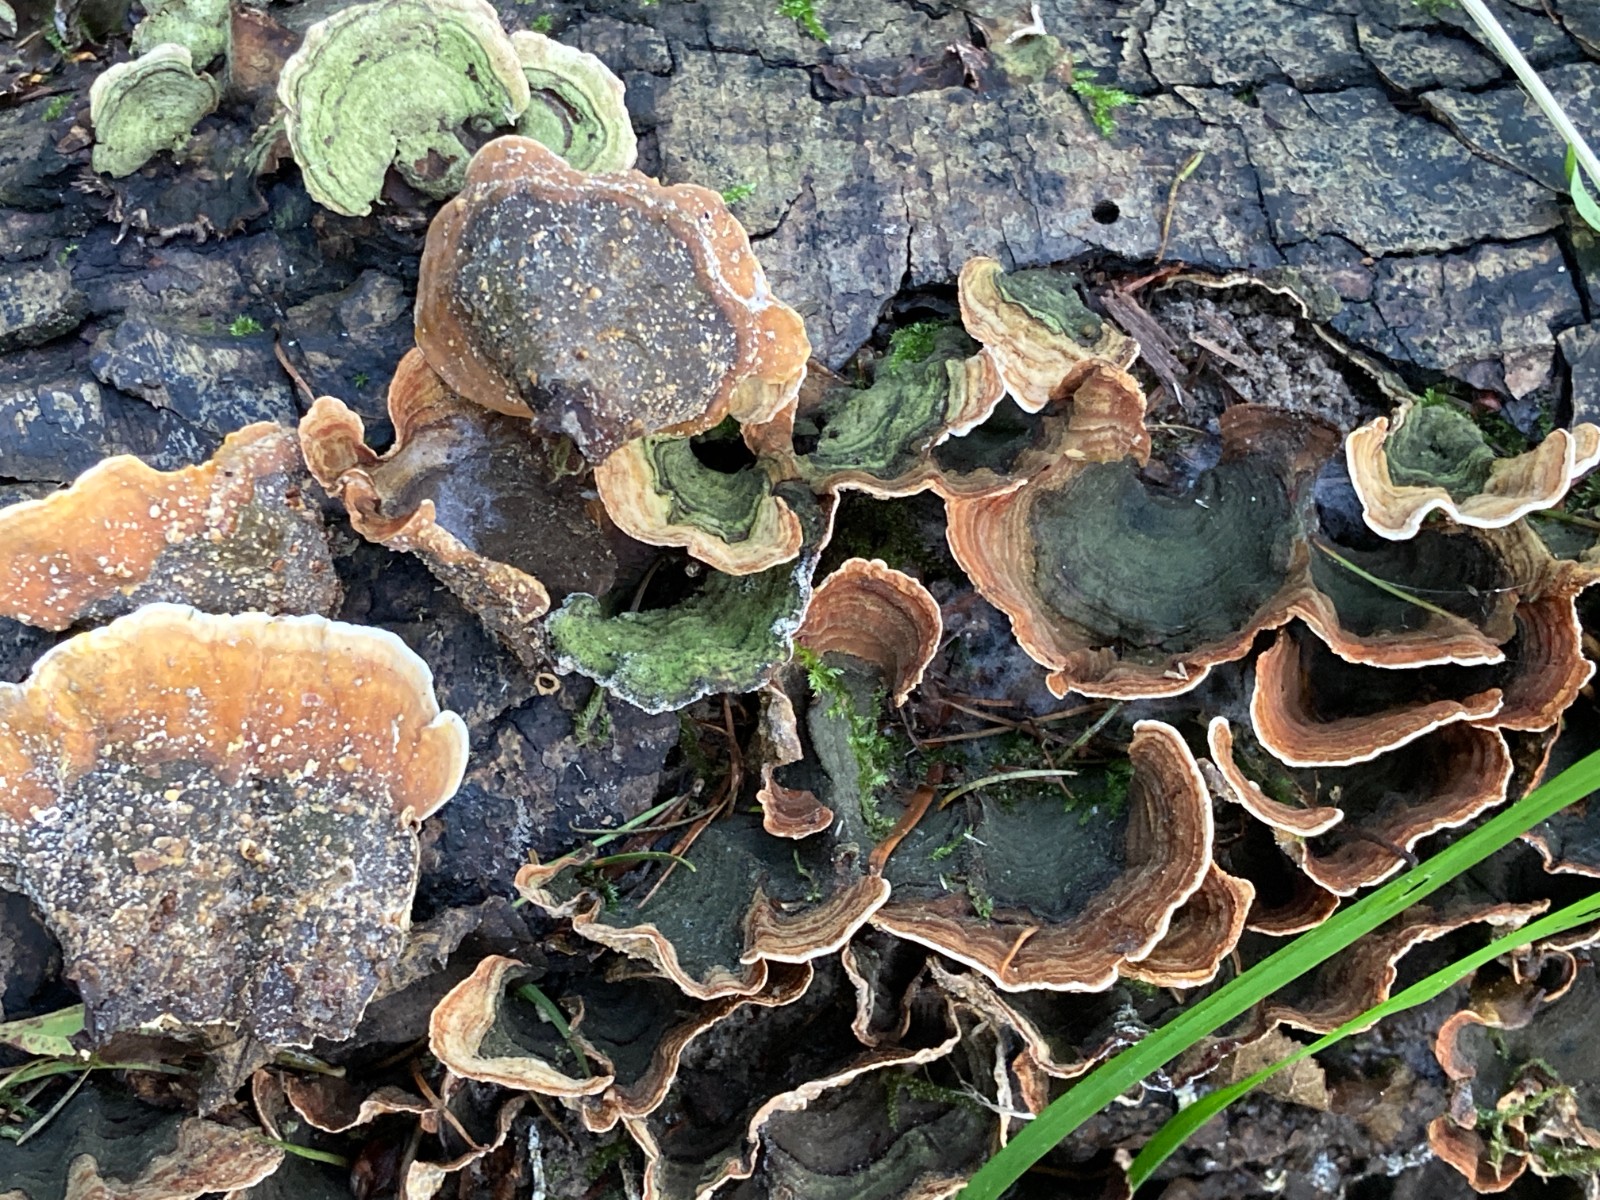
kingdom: Fungi
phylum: Basidiomycota
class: Agaricomycetes
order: Russulales
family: Stereaceae
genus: Stereum
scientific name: Stereum subtomentosum
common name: smuk lædersvamp
